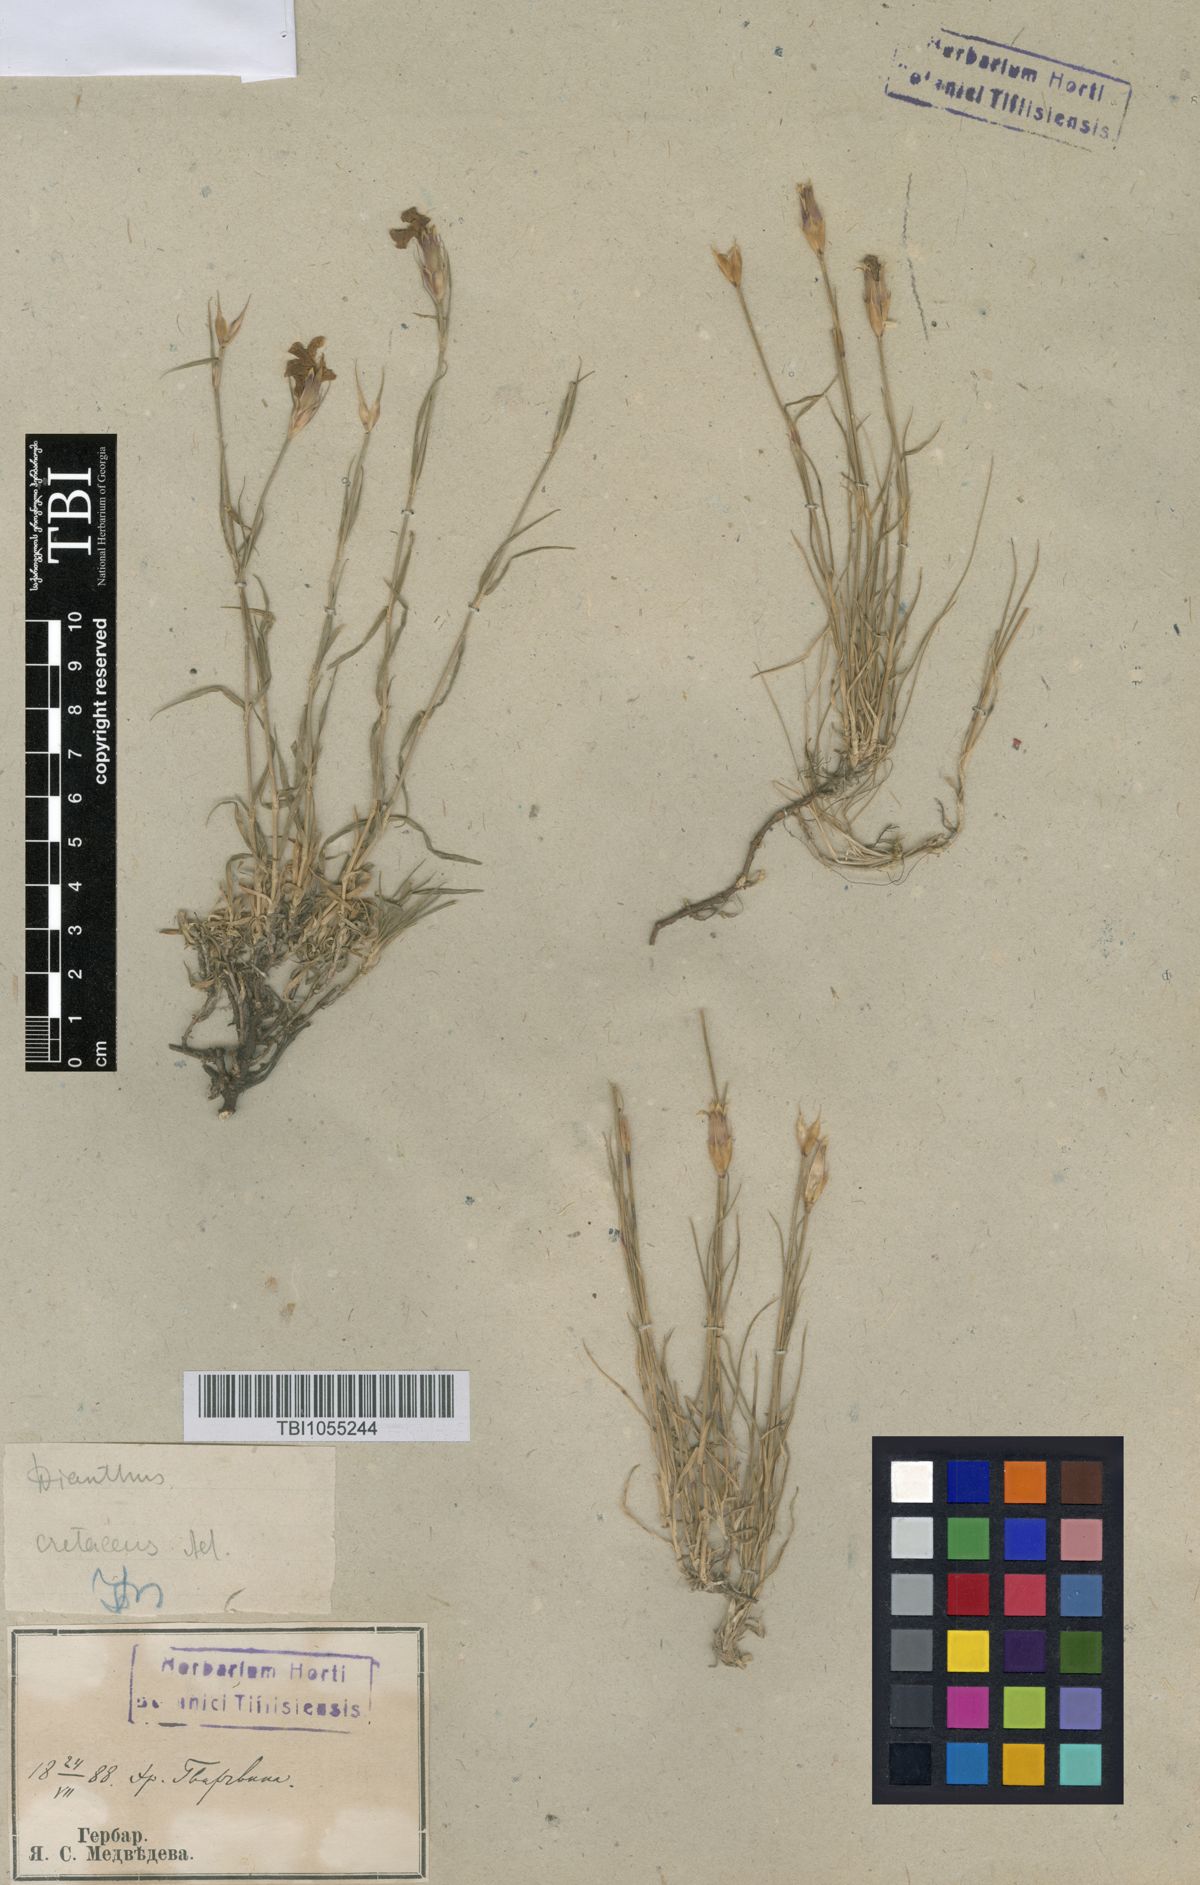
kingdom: Plantae
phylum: Tracheophyta
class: Magnoliopsida
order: Caryophyllales
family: Caryophyllaceae
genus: Dianthus
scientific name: Dianthus cretaceus
